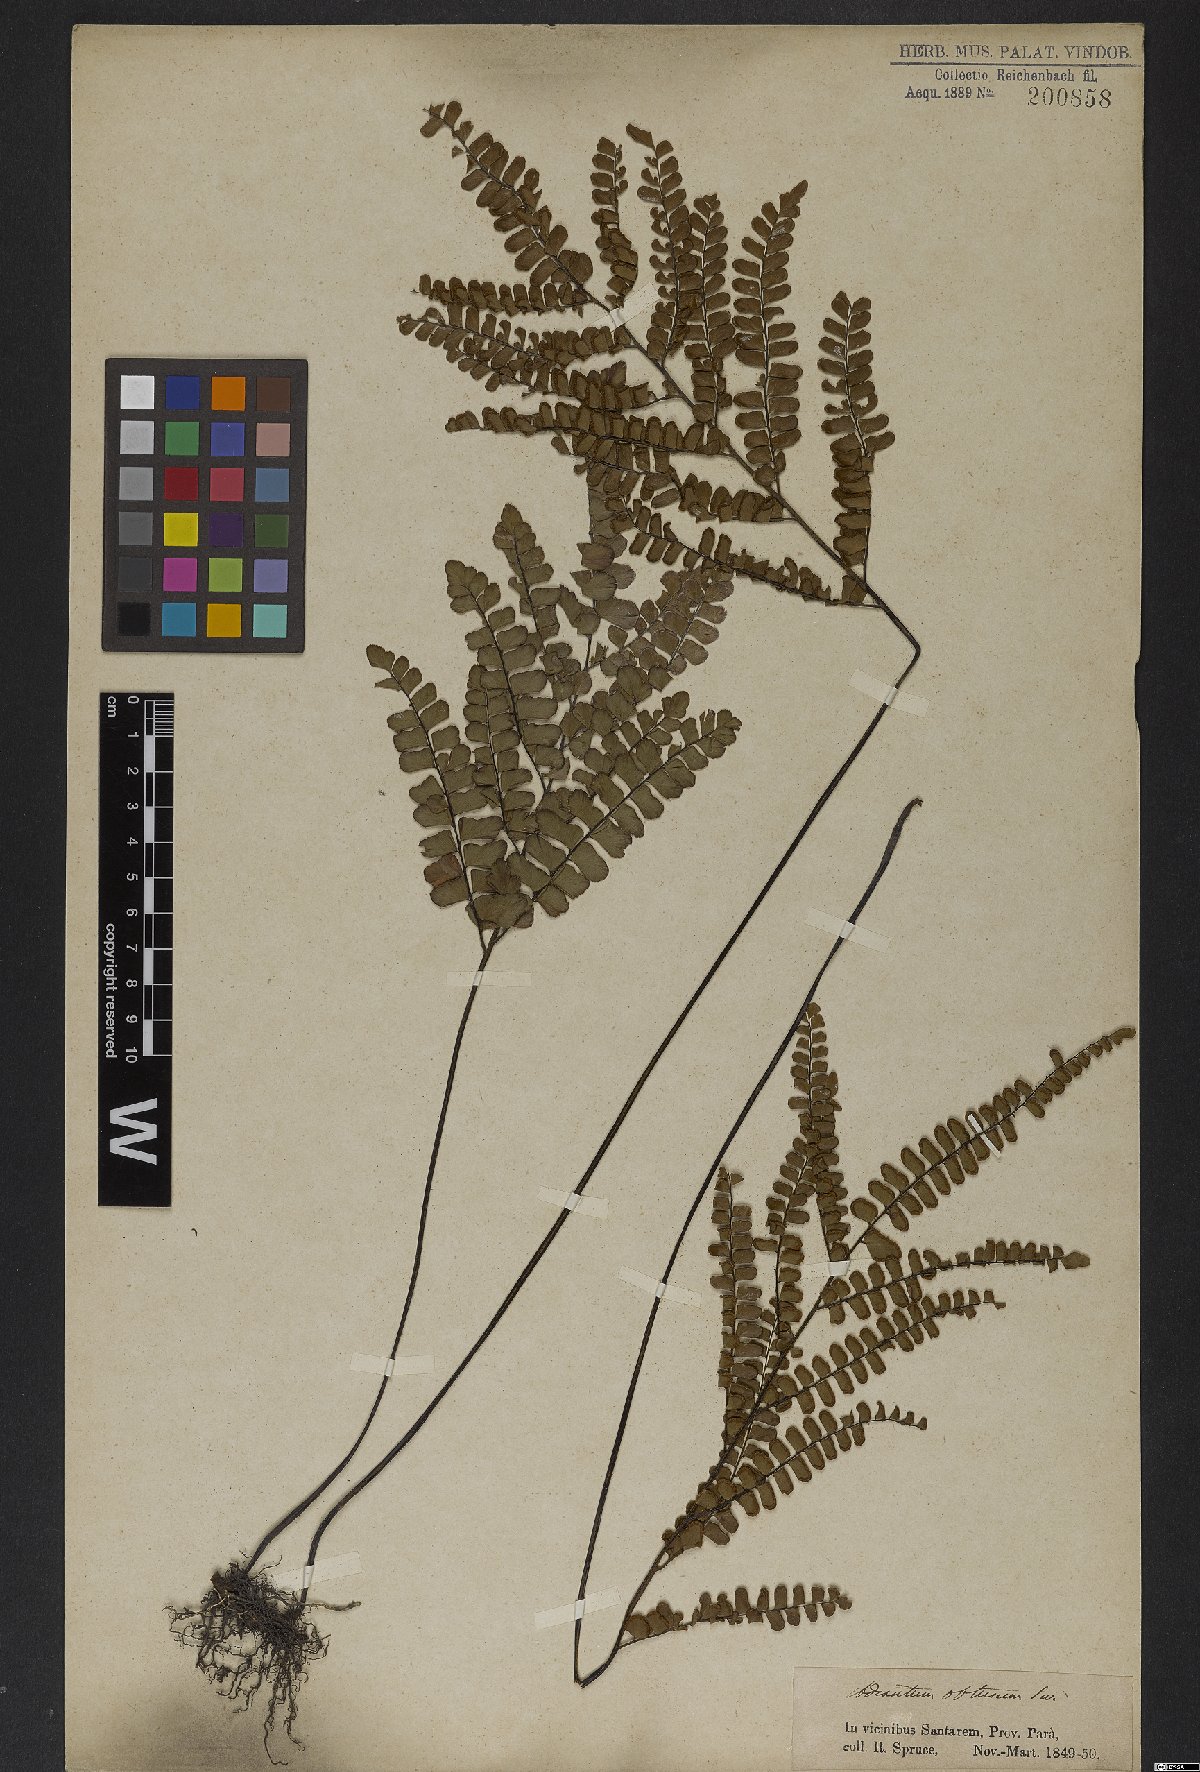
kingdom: Plantae
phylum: Tracheophyta
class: Polypodiopsida
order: Polypodiales
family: Pteridaceae
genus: Adiantum
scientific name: Adiantum serratodentatum
